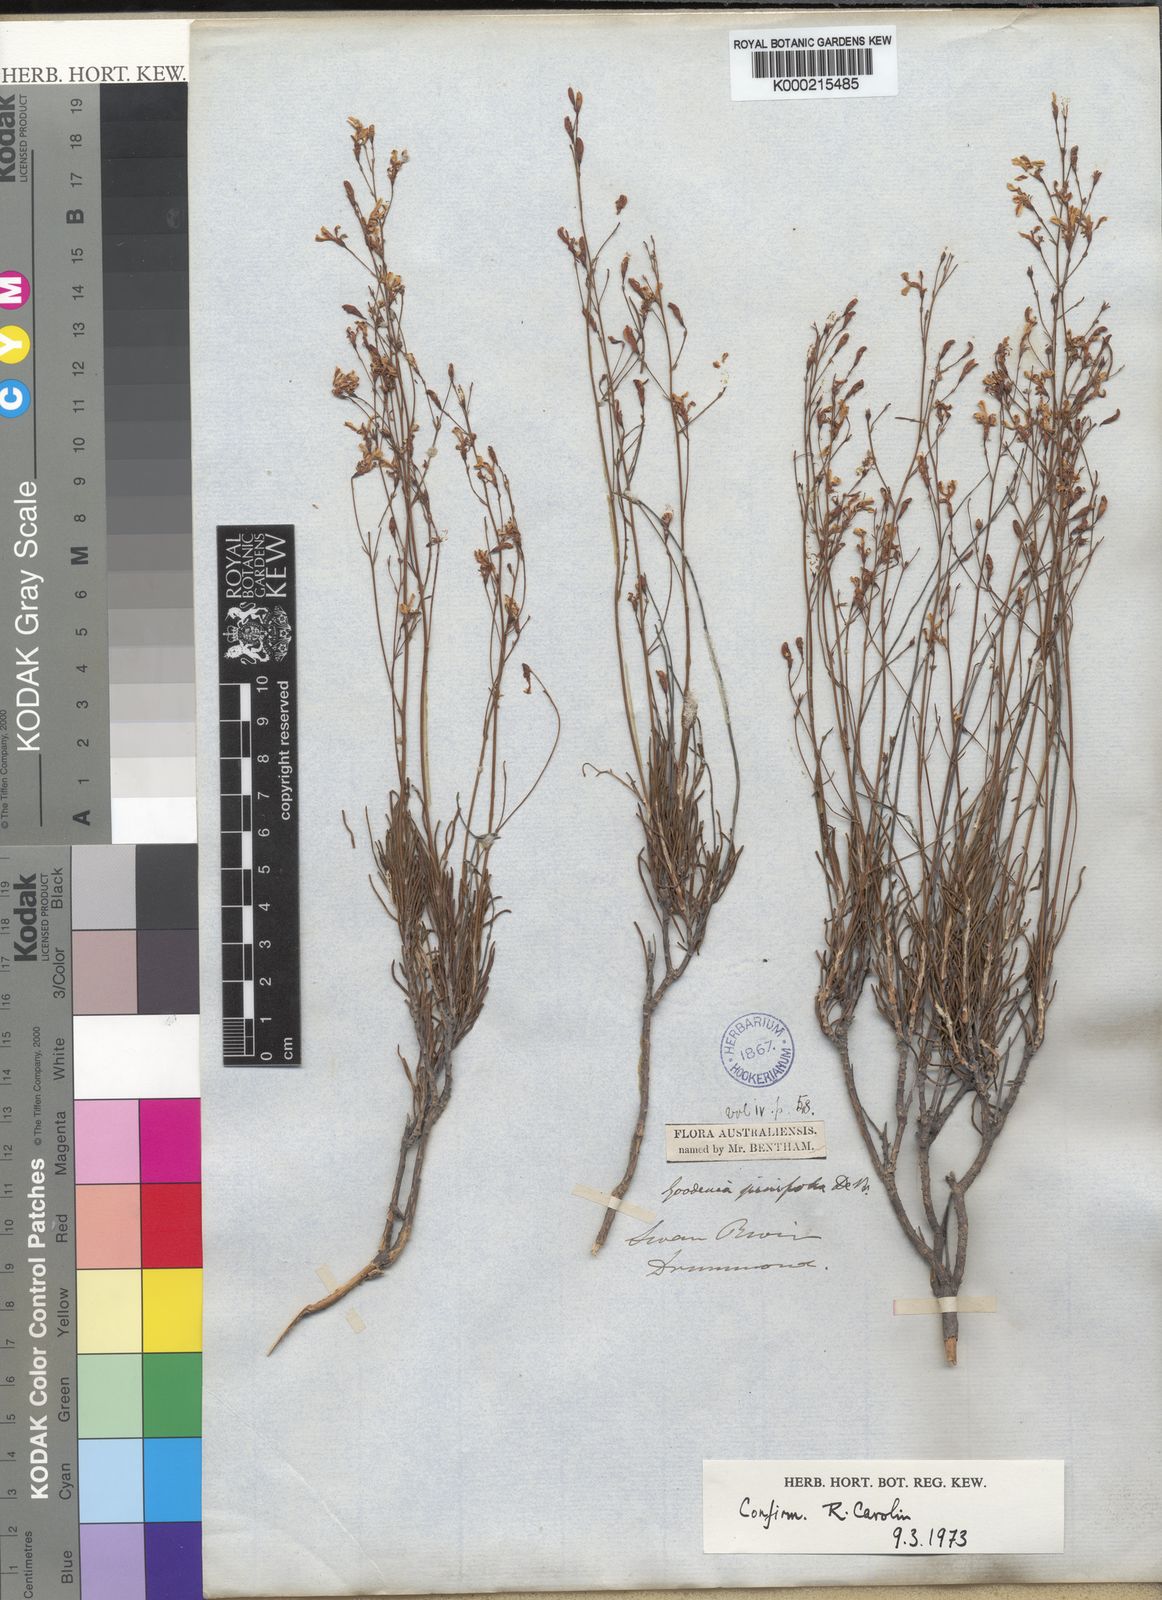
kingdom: Plantae
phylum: Tracheophyta
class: Magnoliopsida
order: Asterales
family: Goodeniaceae
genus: Goodenia
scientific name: Goodenia pinifolia
